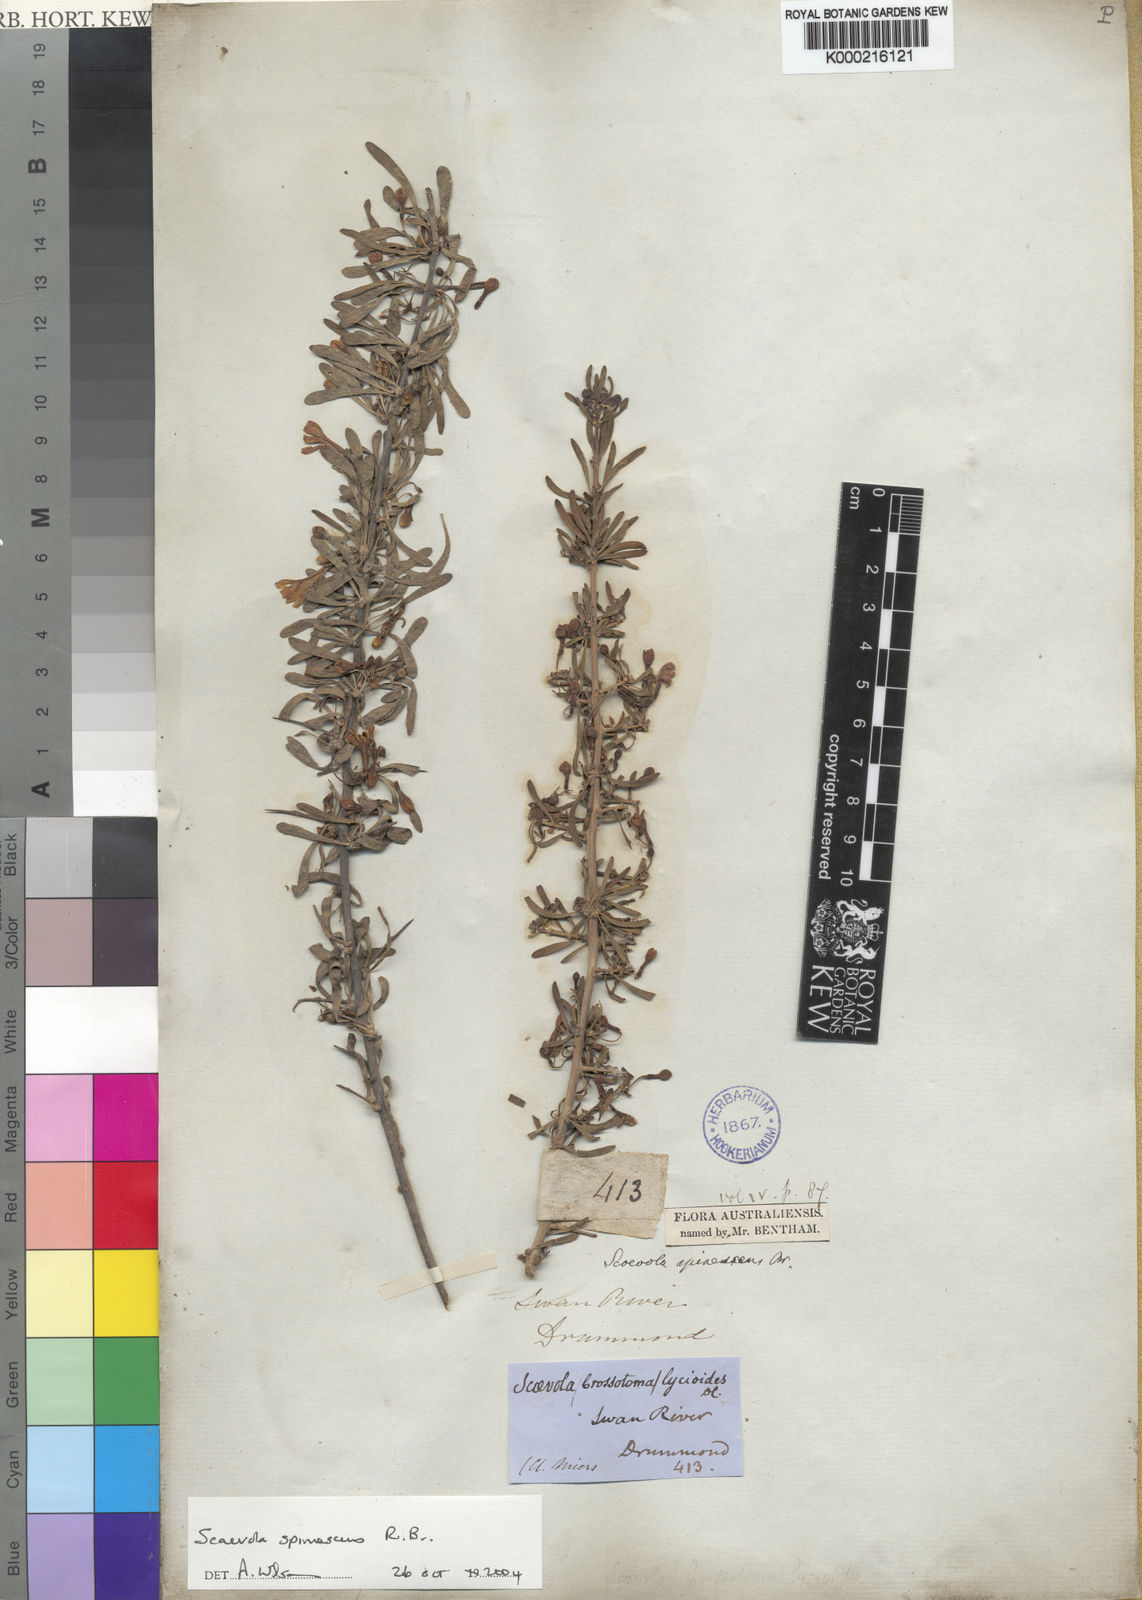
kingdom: Plantae
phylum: Tracheophyta
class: Magnoliopsida
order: Asterales
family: Goodeniaceae
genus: Scaevola
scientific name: Scaevola spinescens
